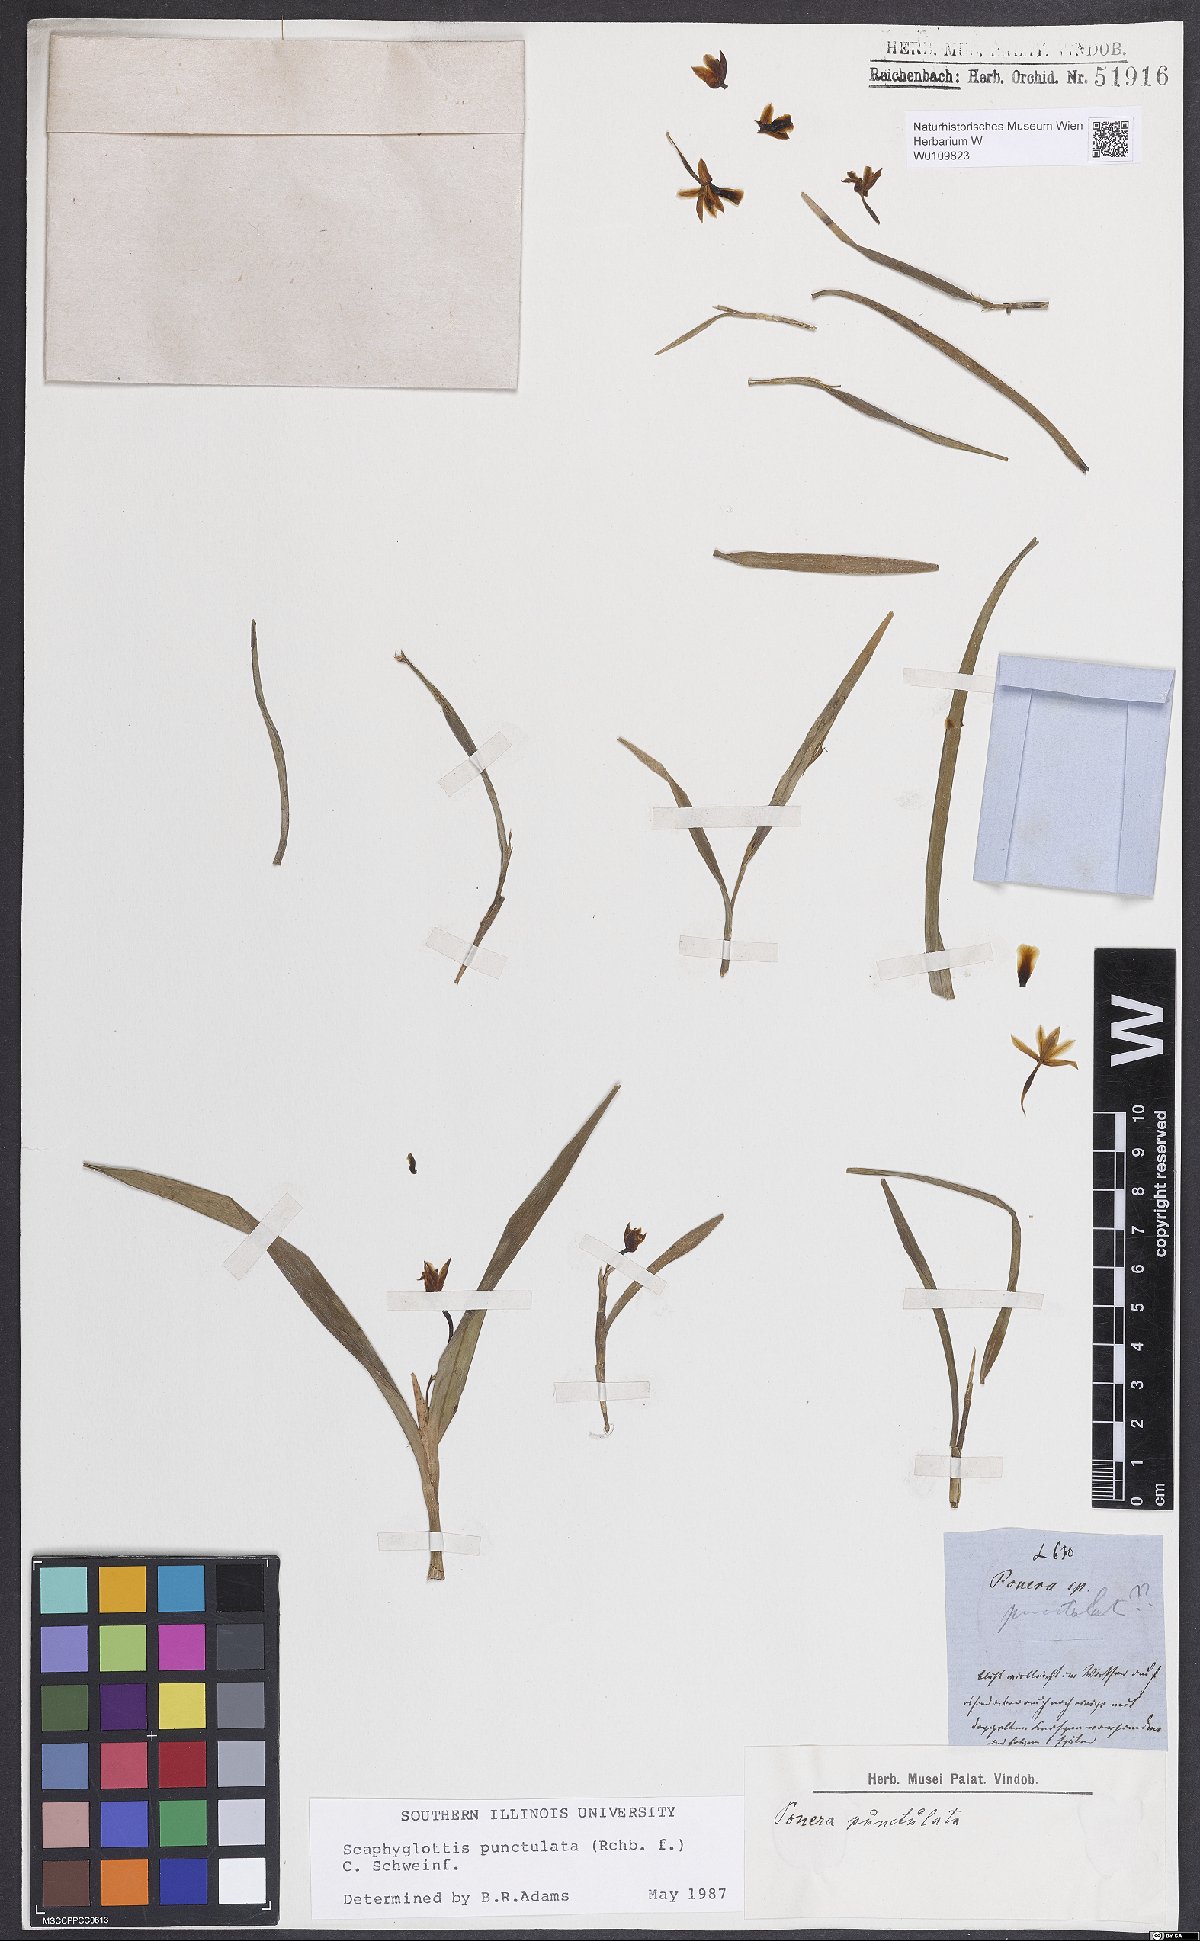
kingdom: Plantae
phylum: Tracheophyta
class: Liliopsida
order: Asparagales
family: Orchidaceae
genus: Scaphyglottis
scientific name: Scaphyglottis punctulata
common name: Dotted orchid
